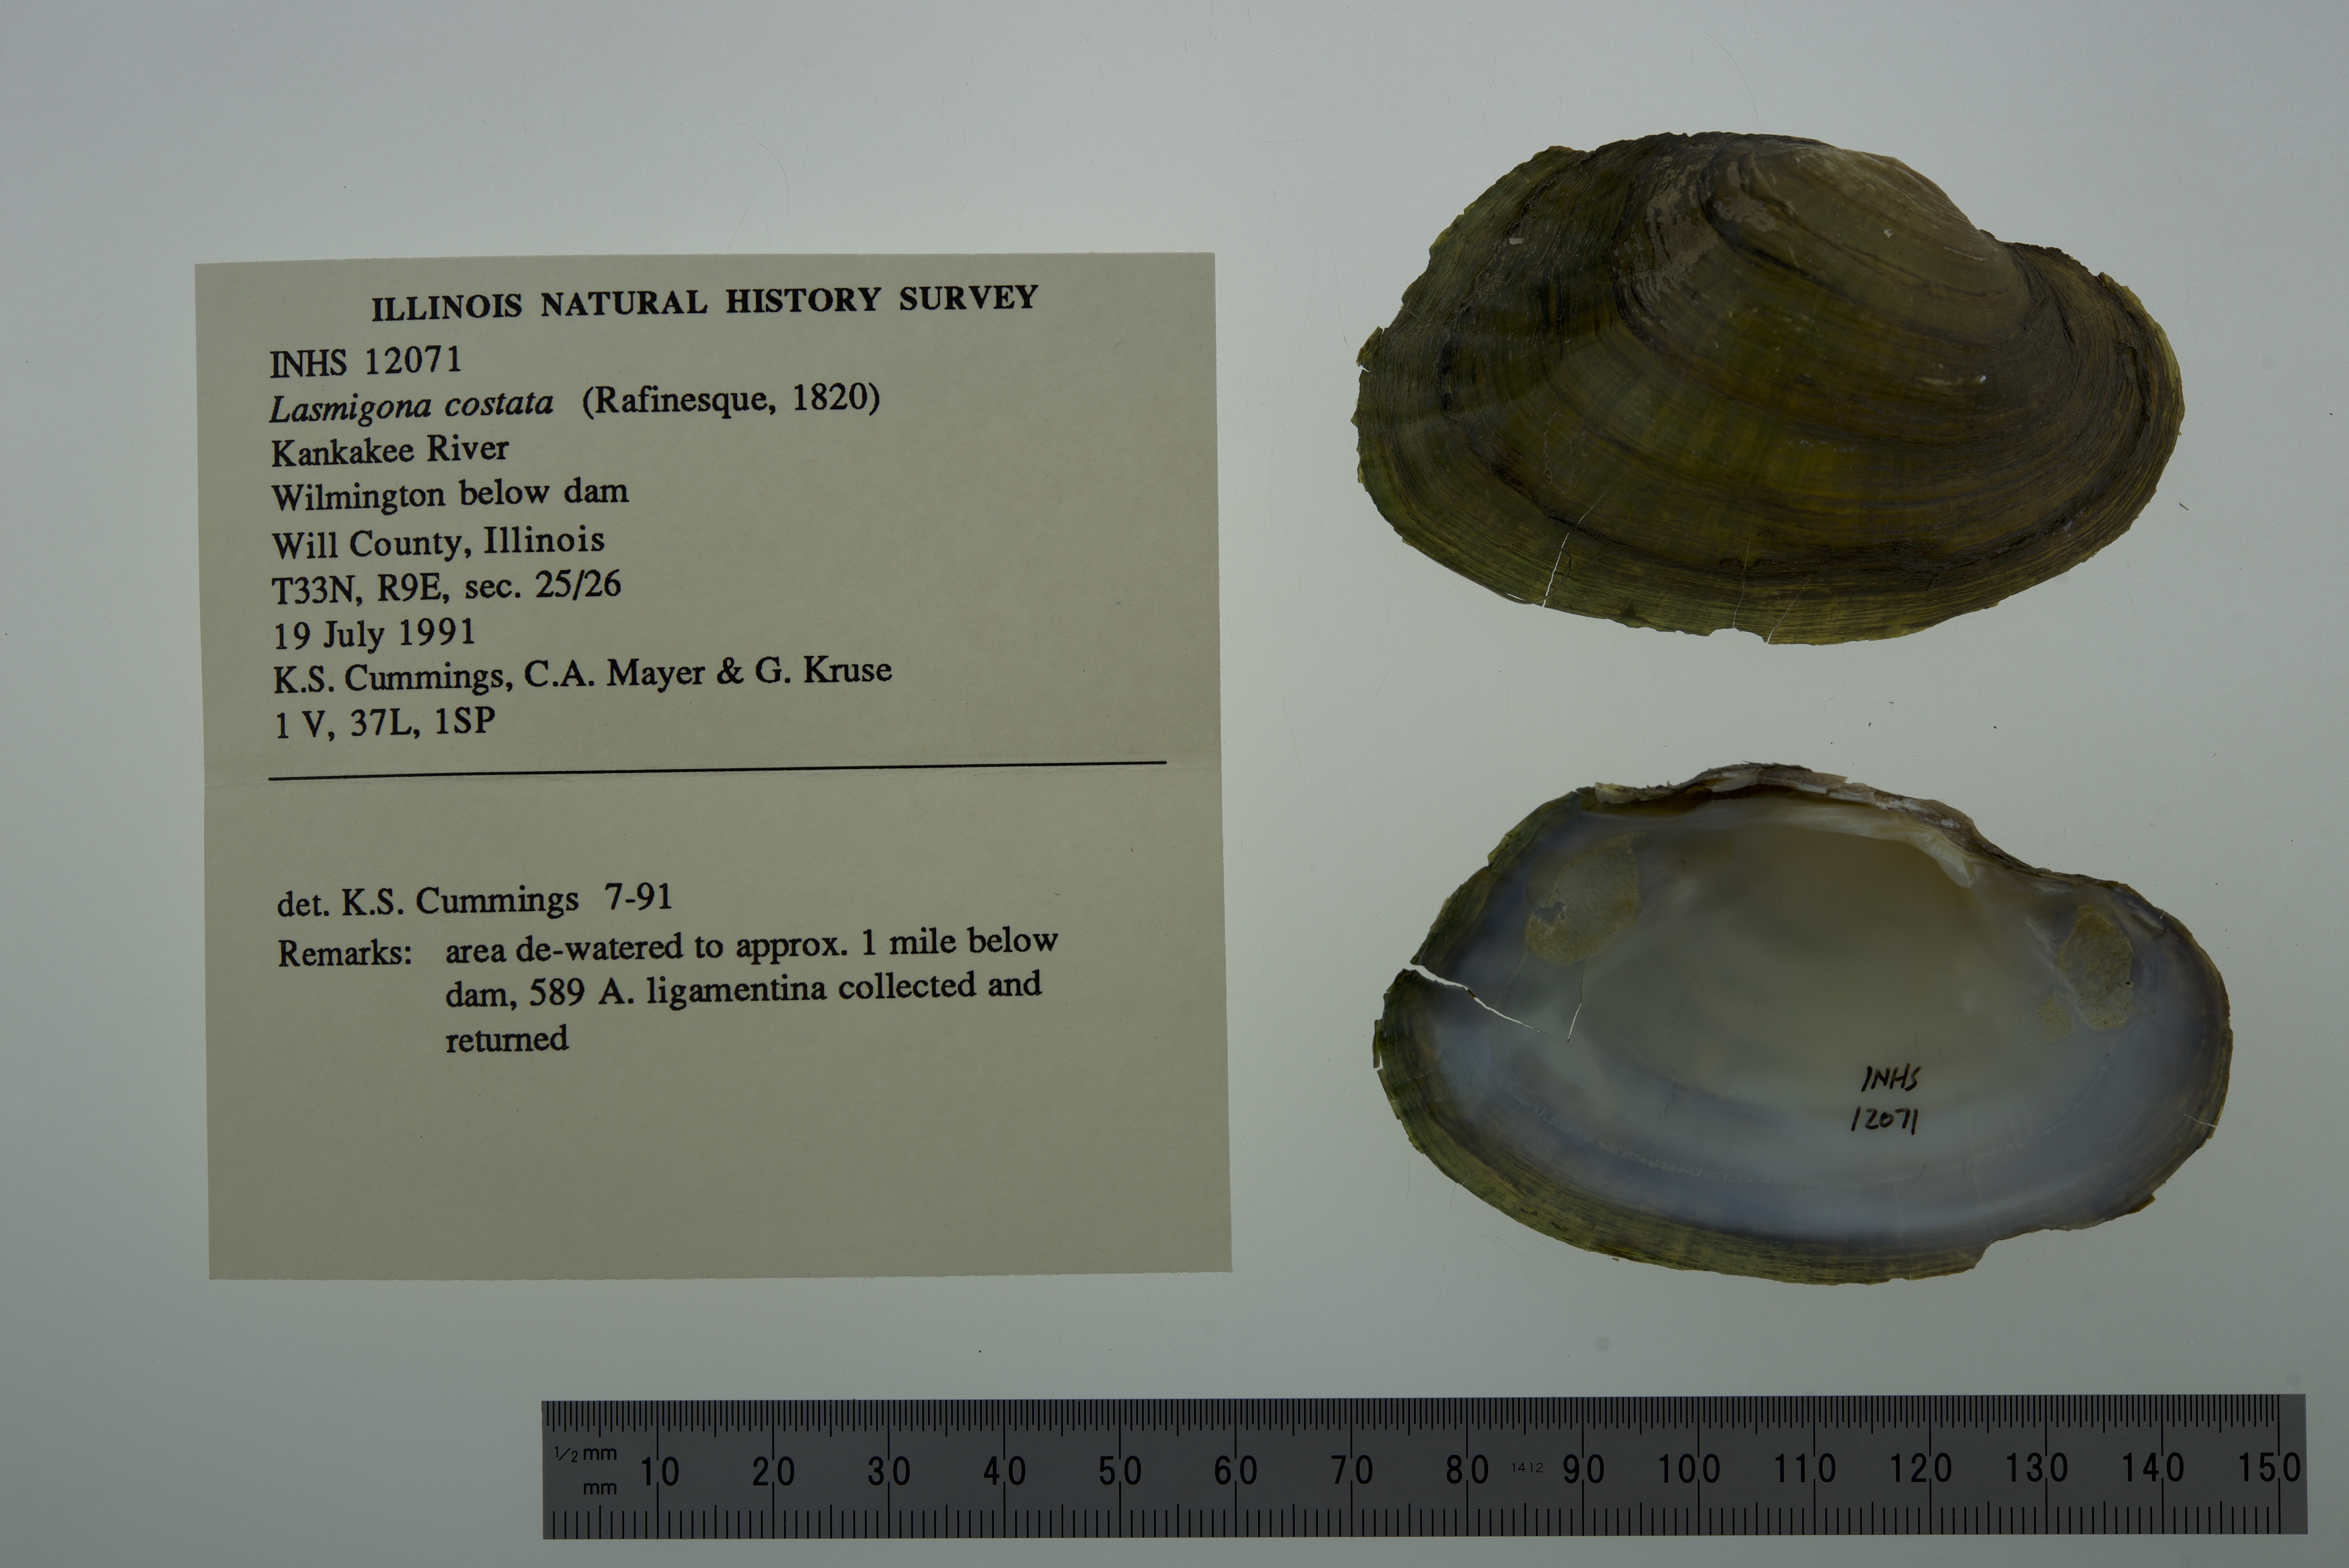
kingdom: Animalia
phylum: Mollusca
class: Bivalvia
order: Unionida
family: Unionidae
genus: Lasmigona
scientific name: Lasmigona costata
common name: Flutedshell
